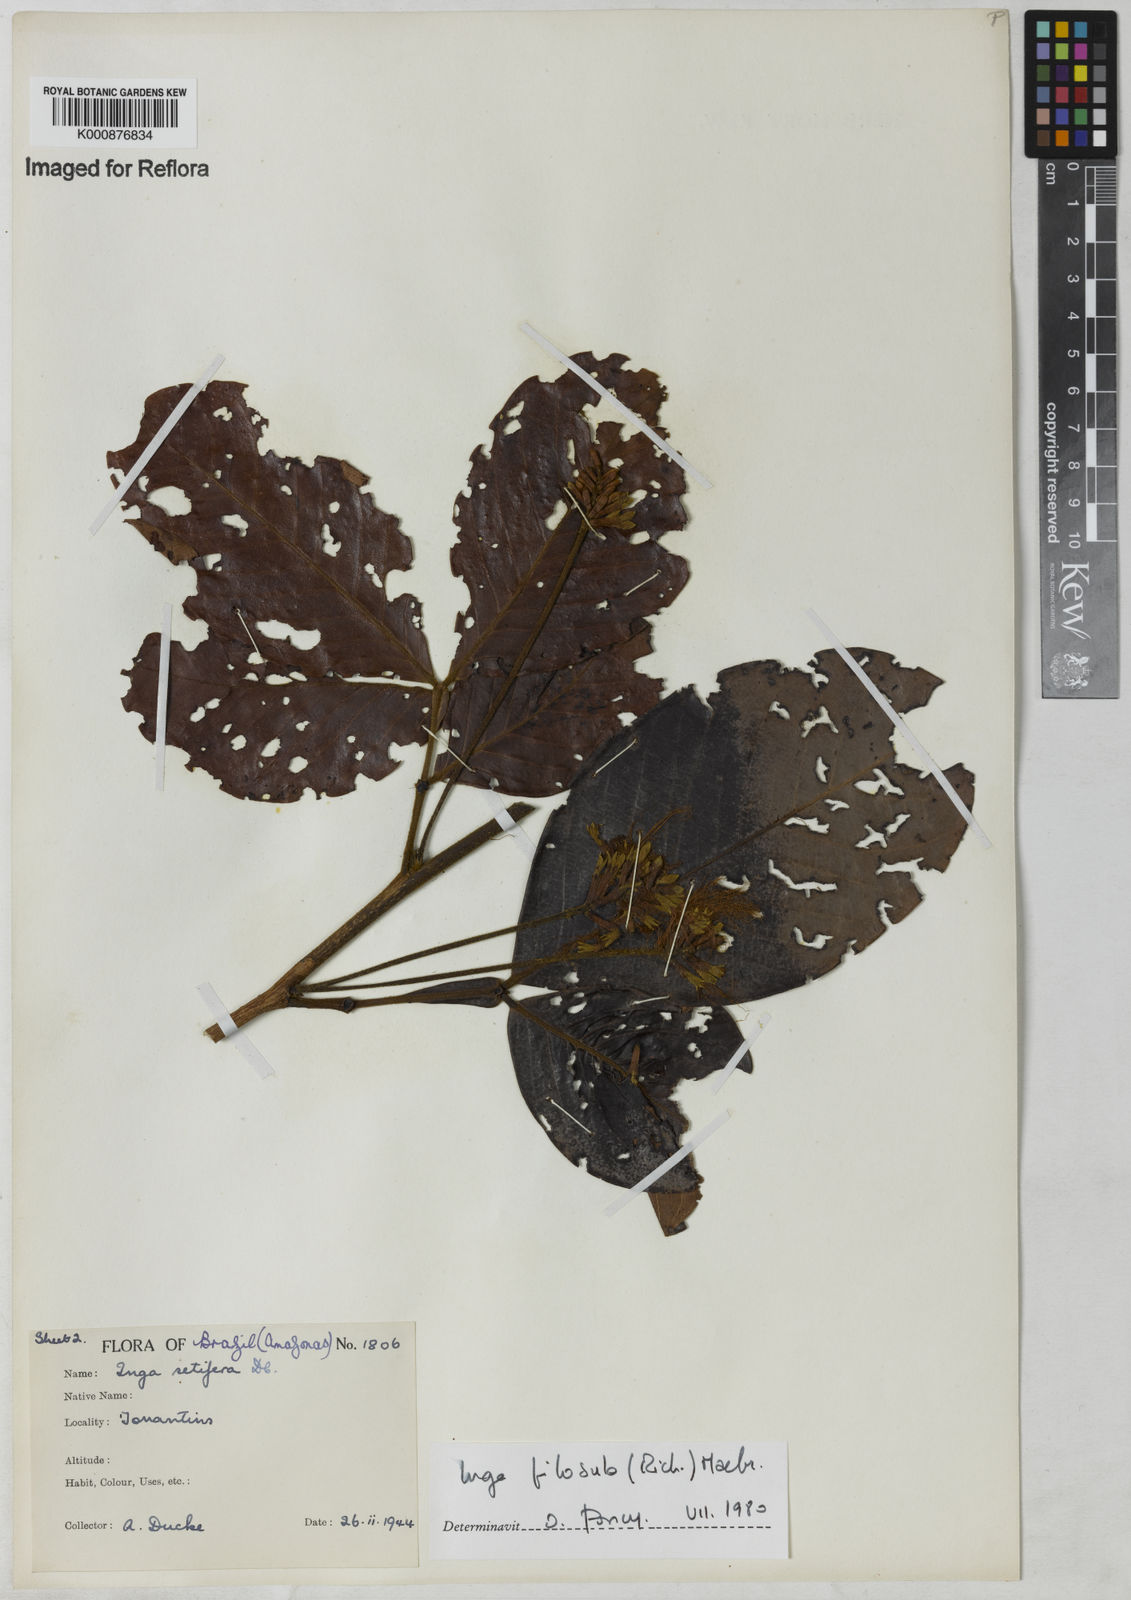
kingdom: Plantae
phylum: Tracheophyta
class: Magnoliopsida
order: Fabales
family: Fabaceae
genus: Inga
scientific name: Inga pilosula
